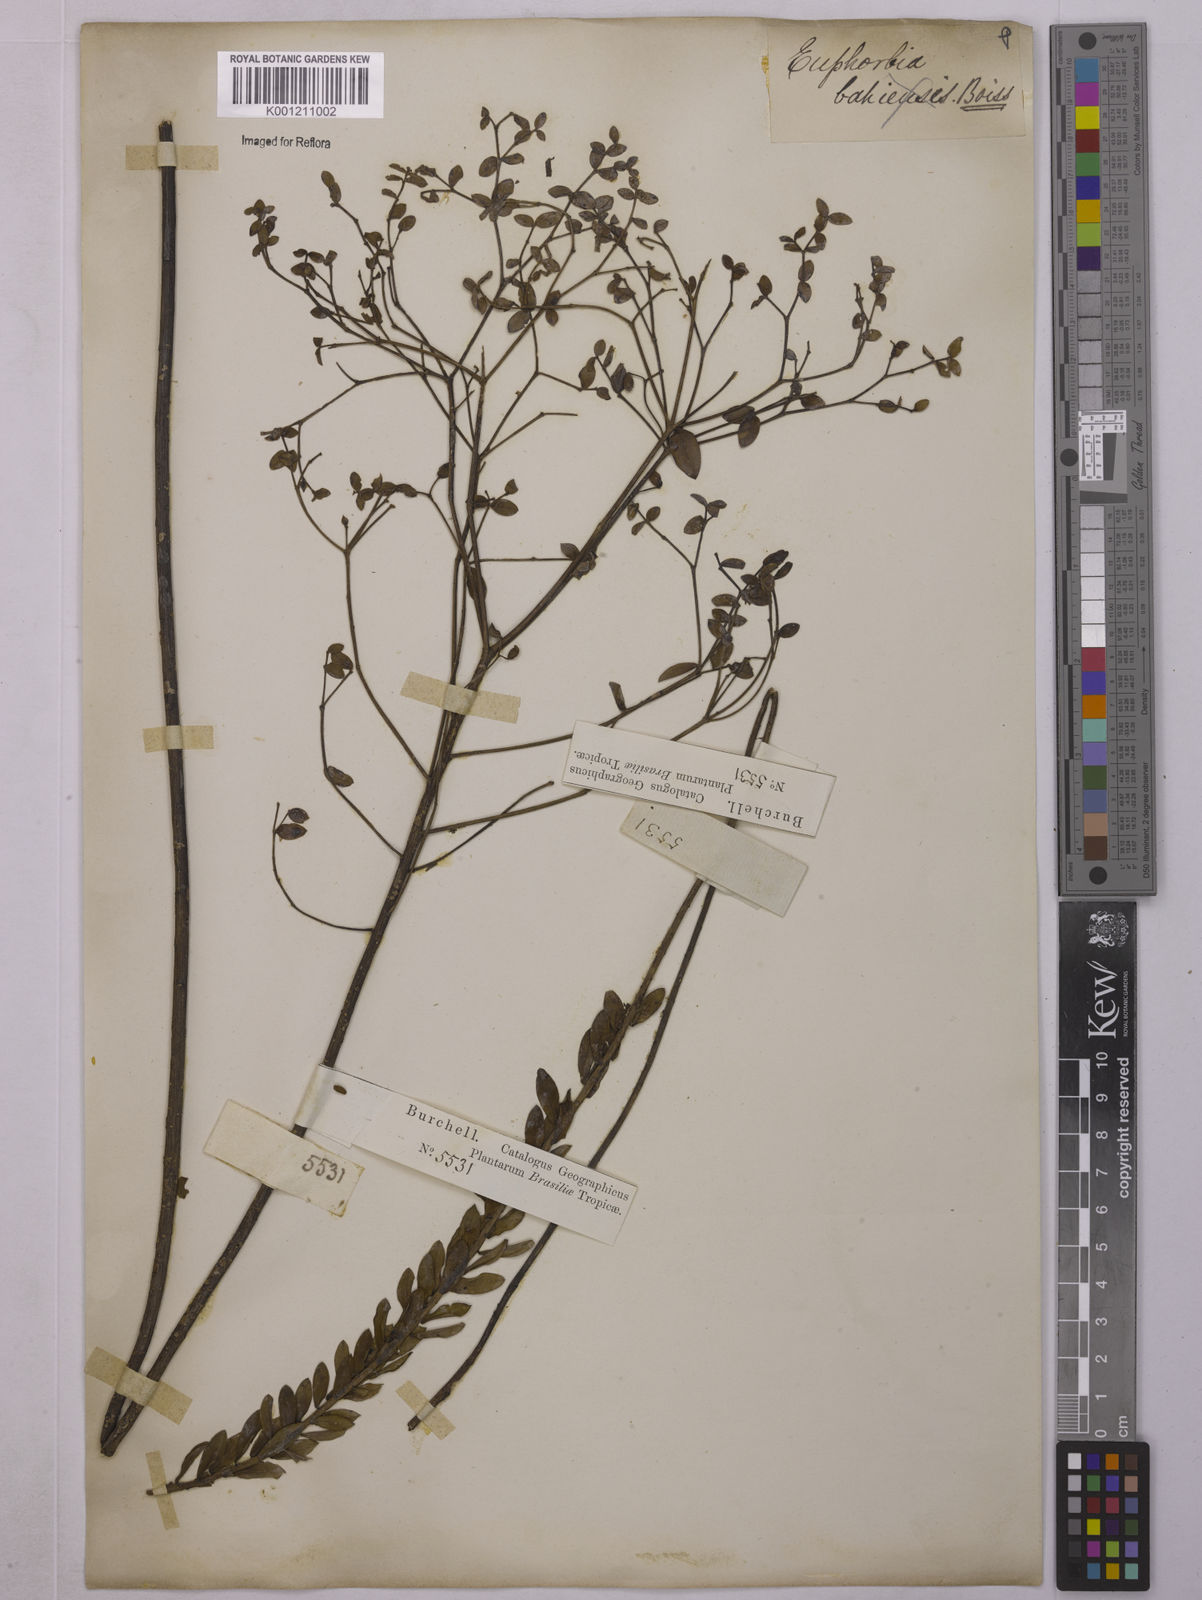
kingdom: Plantae
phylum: Tracheophyta
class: Magnoliopsida
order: Malpighiales
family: Euphorbiaceae
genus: Euphorbia
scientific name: Euphorbia
